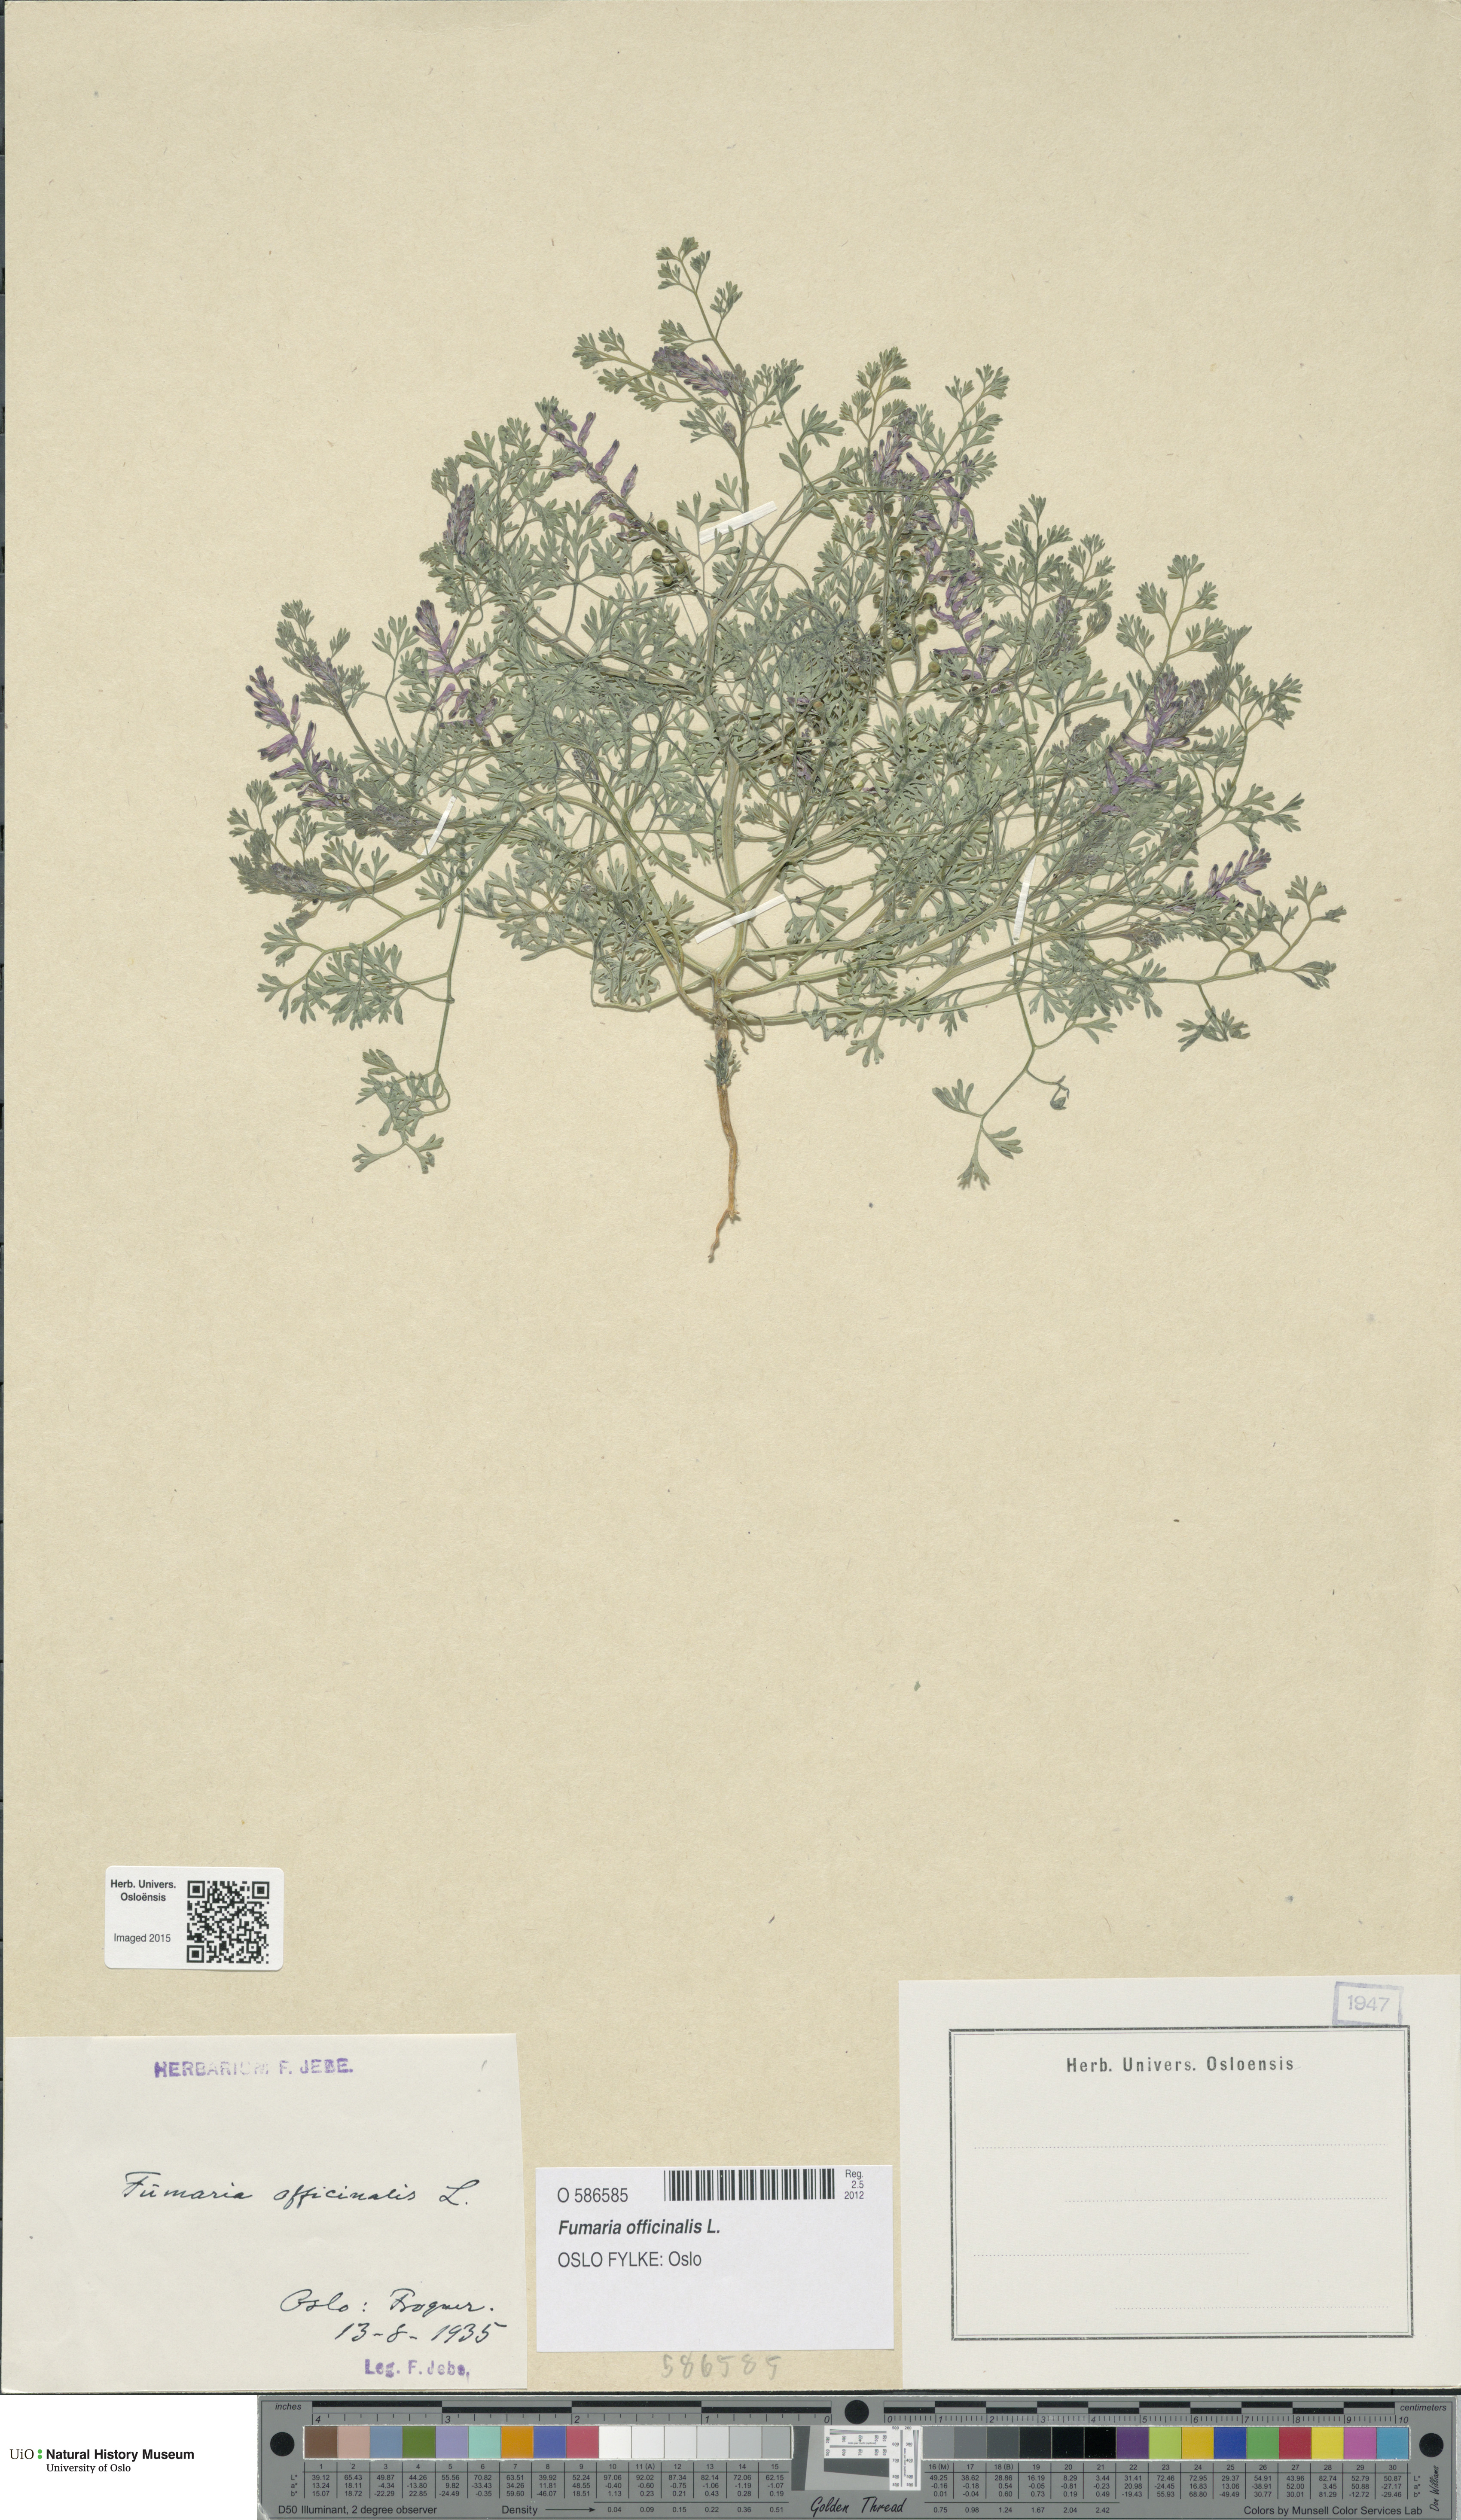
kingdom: Plantae
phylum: Tracheophyta
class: Magnoliopsida
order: Ranunculales
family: Papaveraceae
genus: Fumaria
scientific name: Fumaria officinalis
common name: Common fumitory
